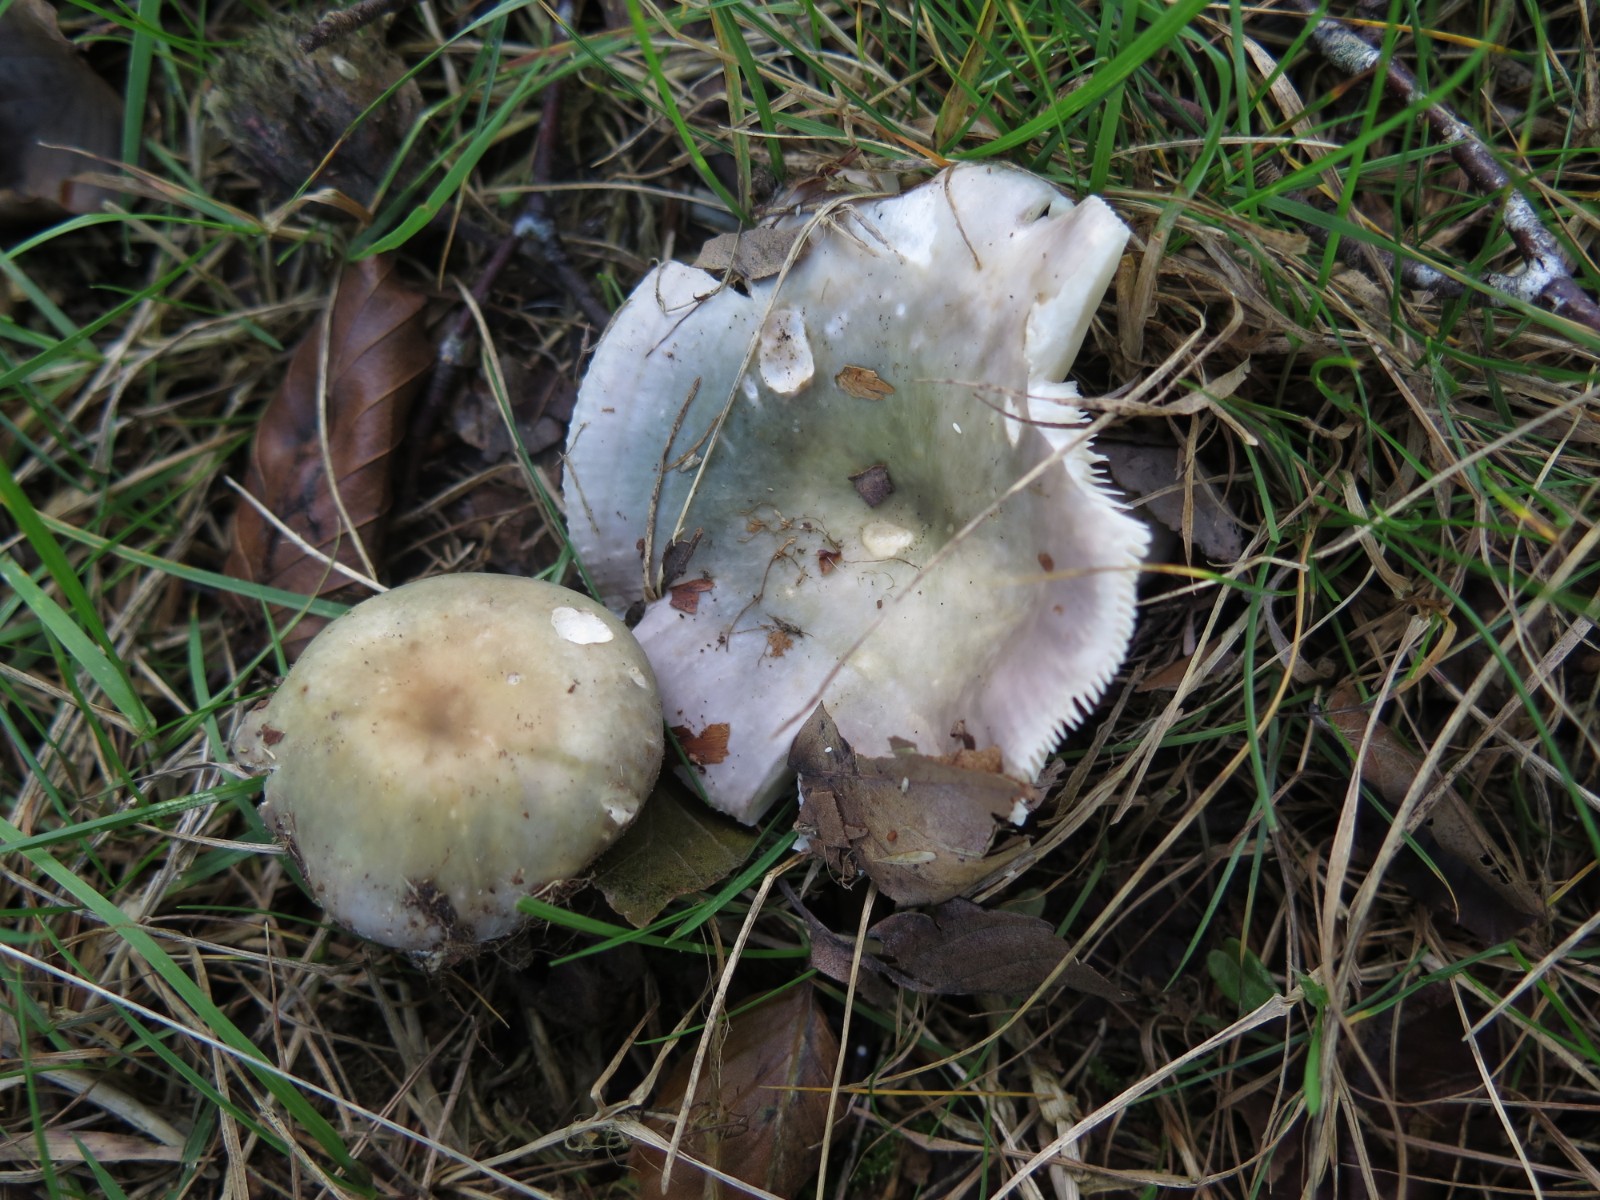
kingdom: Fungi
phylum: Basidiomycota
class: Agaricomycetes
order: Russulales
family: Russulaceae
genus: Russula
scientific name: Russula cyanoxantha
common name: broget skørhat
